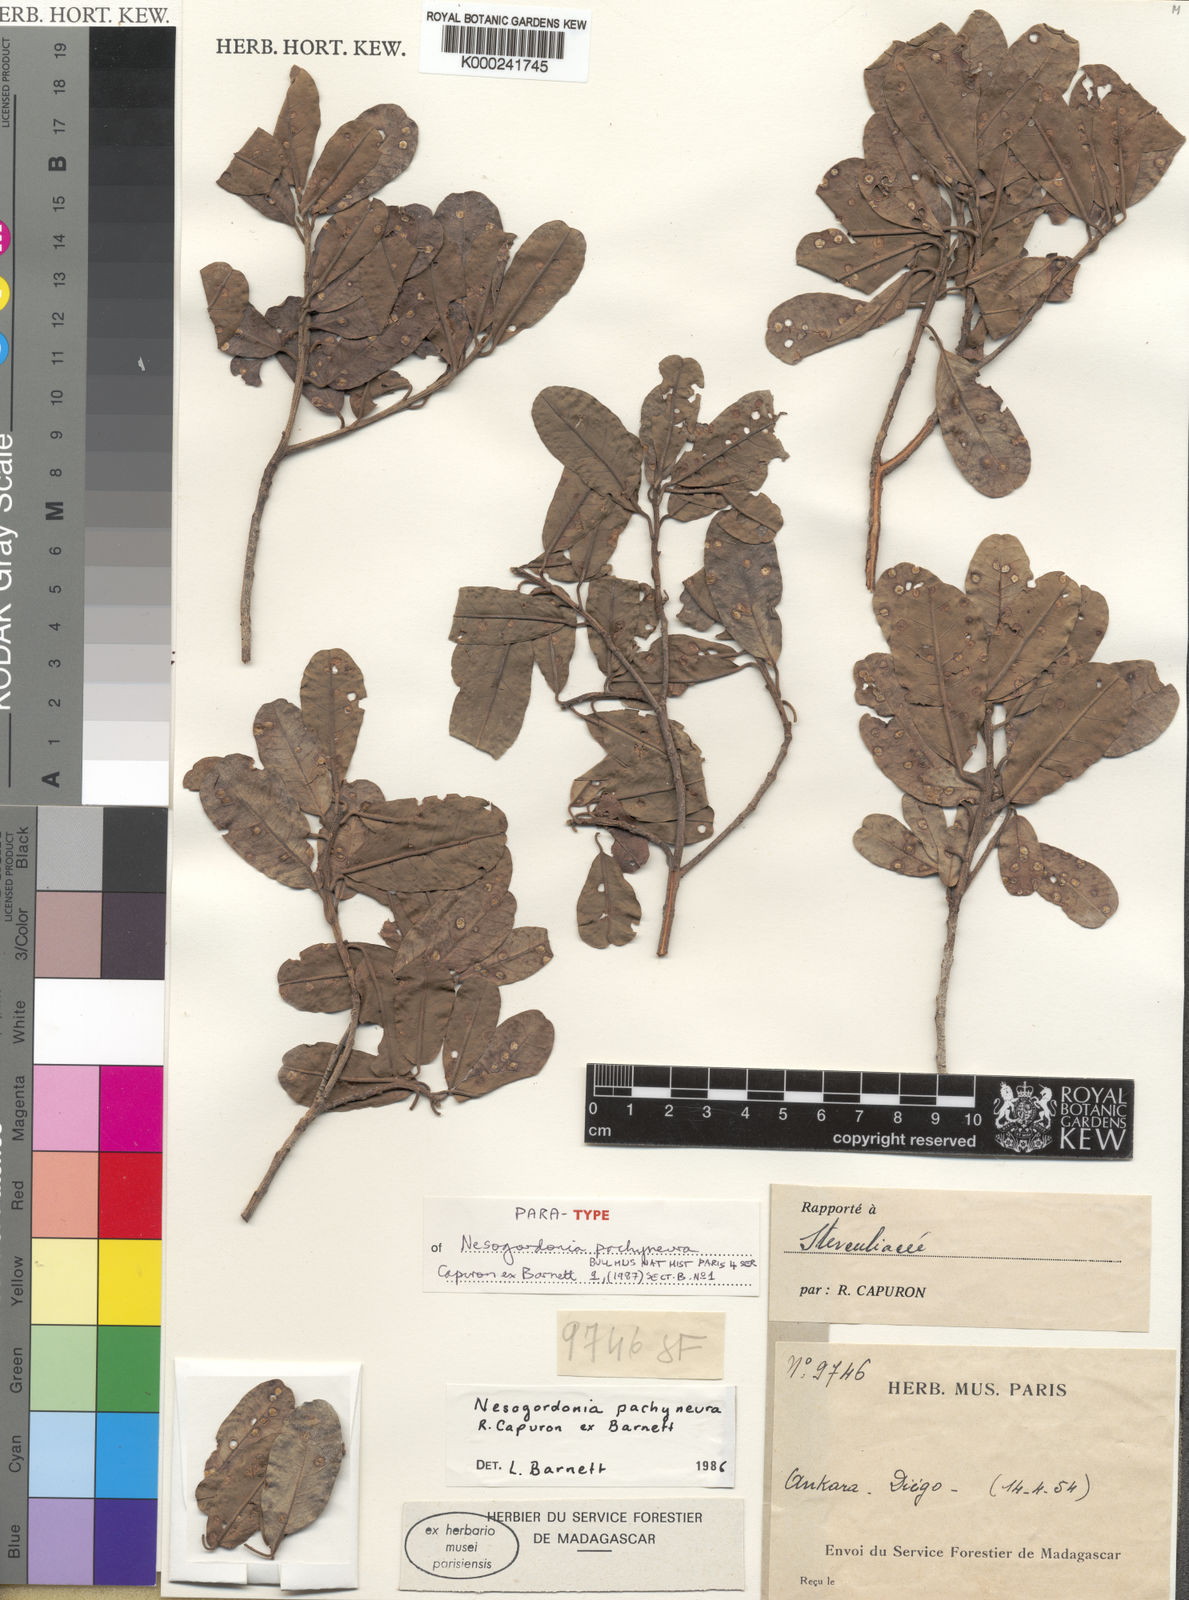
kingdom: Plantae
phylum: Tracheophyta
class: Magnoliopsida
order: Malvales
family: Malvaceae
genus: Nesogordonia
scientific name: Nesogordonia pachyneura
